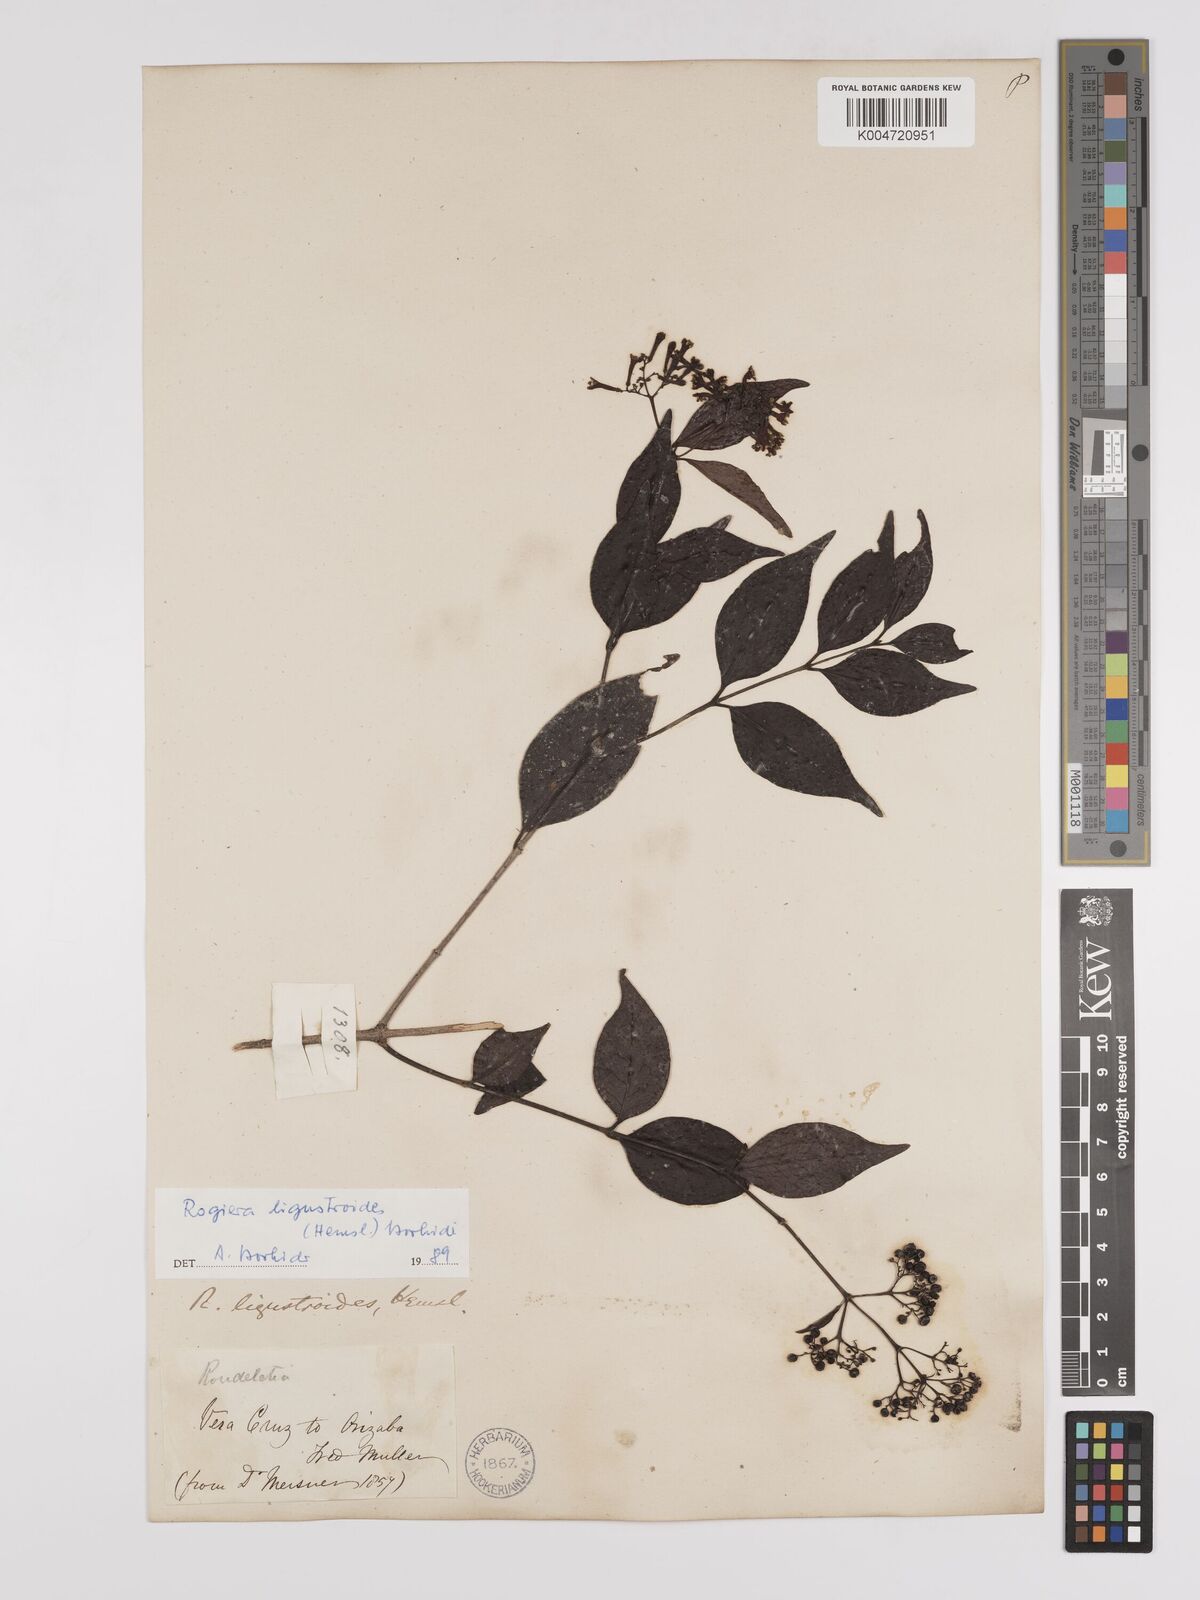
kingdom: Plantae
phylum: Tracheophyta
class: Magnoliopsida
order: Gentianales
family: Rubiaceae
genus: Rogiera
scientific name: Rogiera ligustroides
